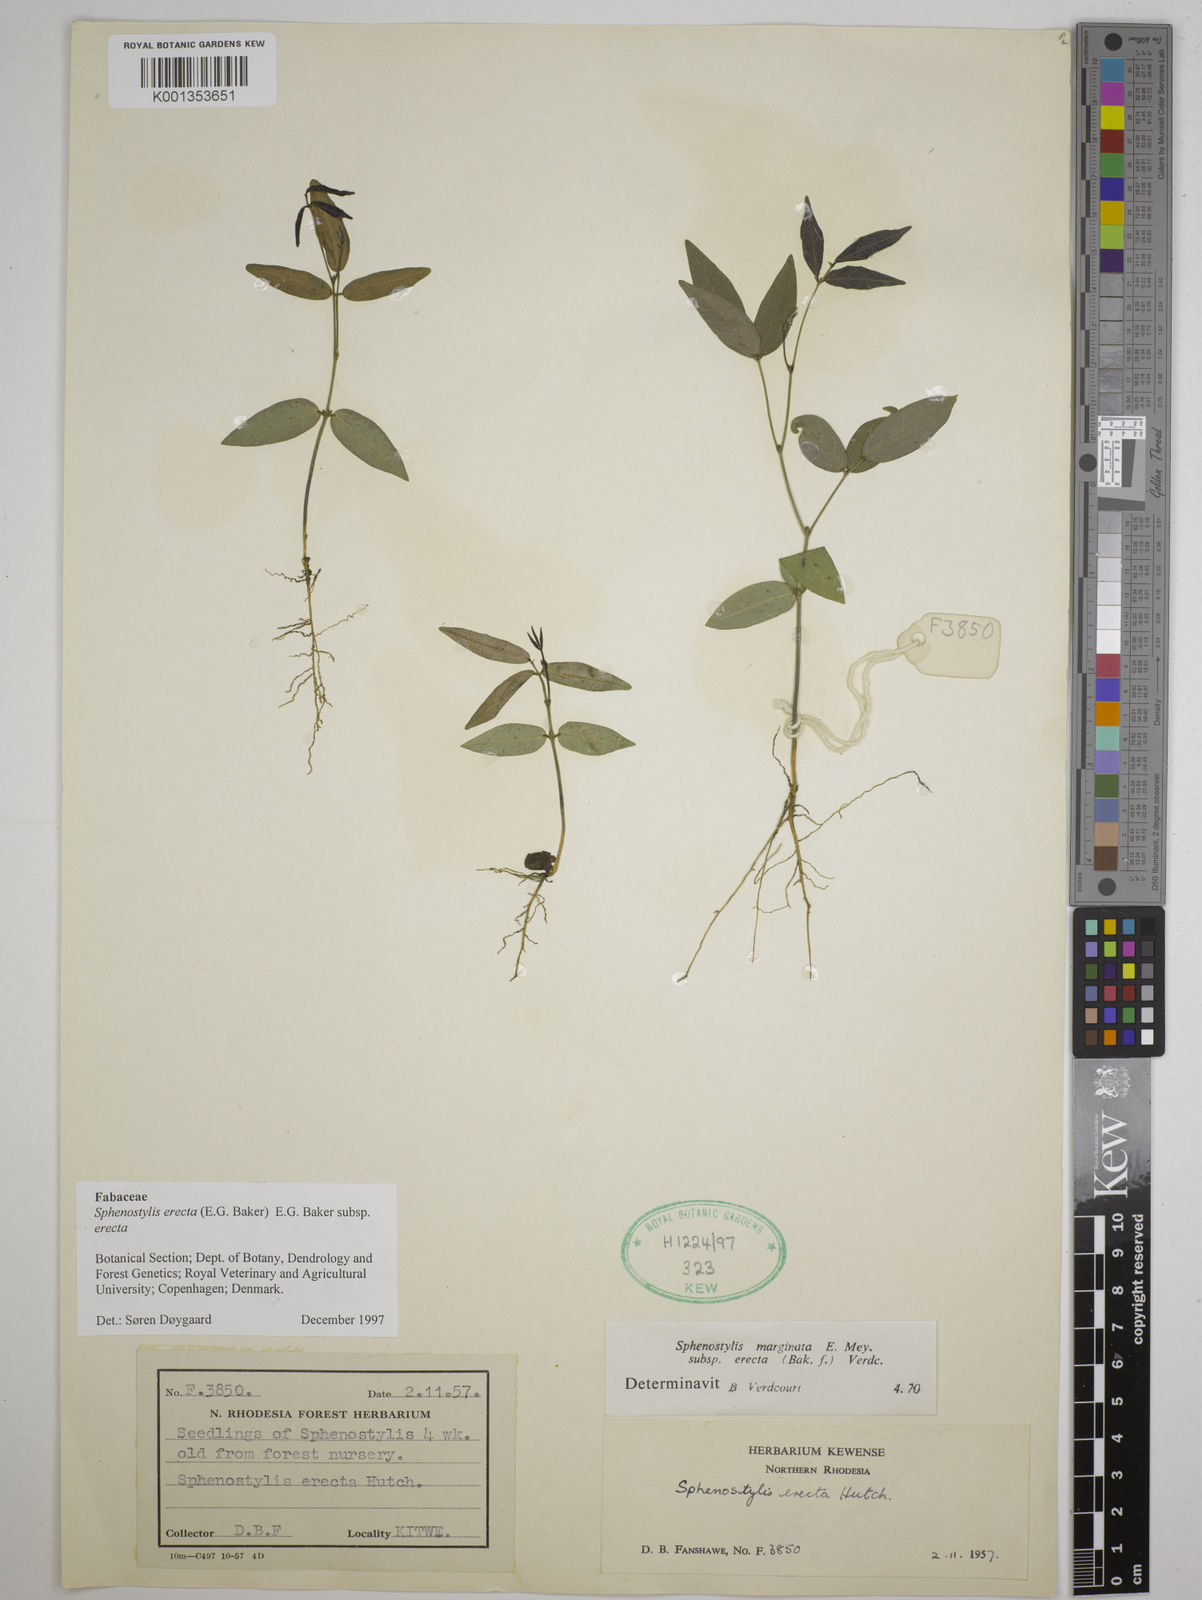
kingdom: Plantae
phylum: Tracheophyta
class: Magnoliopsida
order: Fabales
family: Fabaceae
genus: Sphenostylis
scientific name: Sphenostylis erecta
